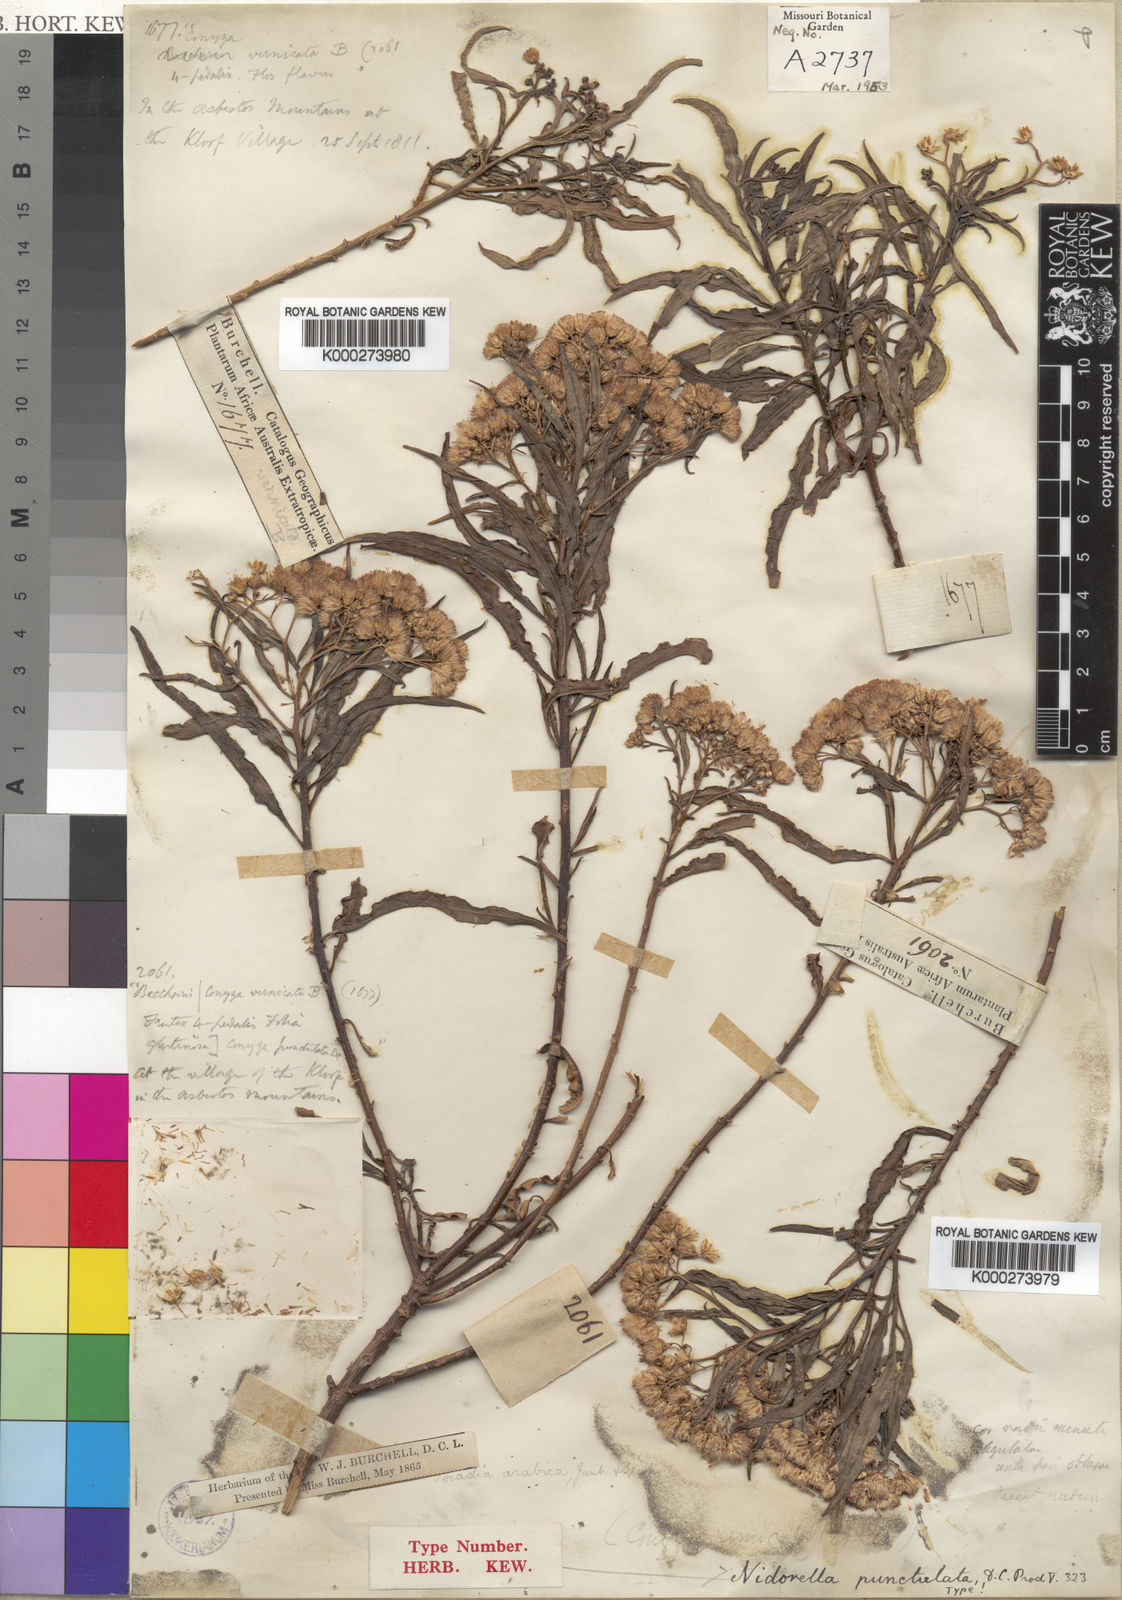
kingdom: Plantae
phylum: Tracheophyta
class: Magnoliopsida
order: Asterales
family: Asteraceae
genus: Psiadia
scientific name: Psiadia punctulata
